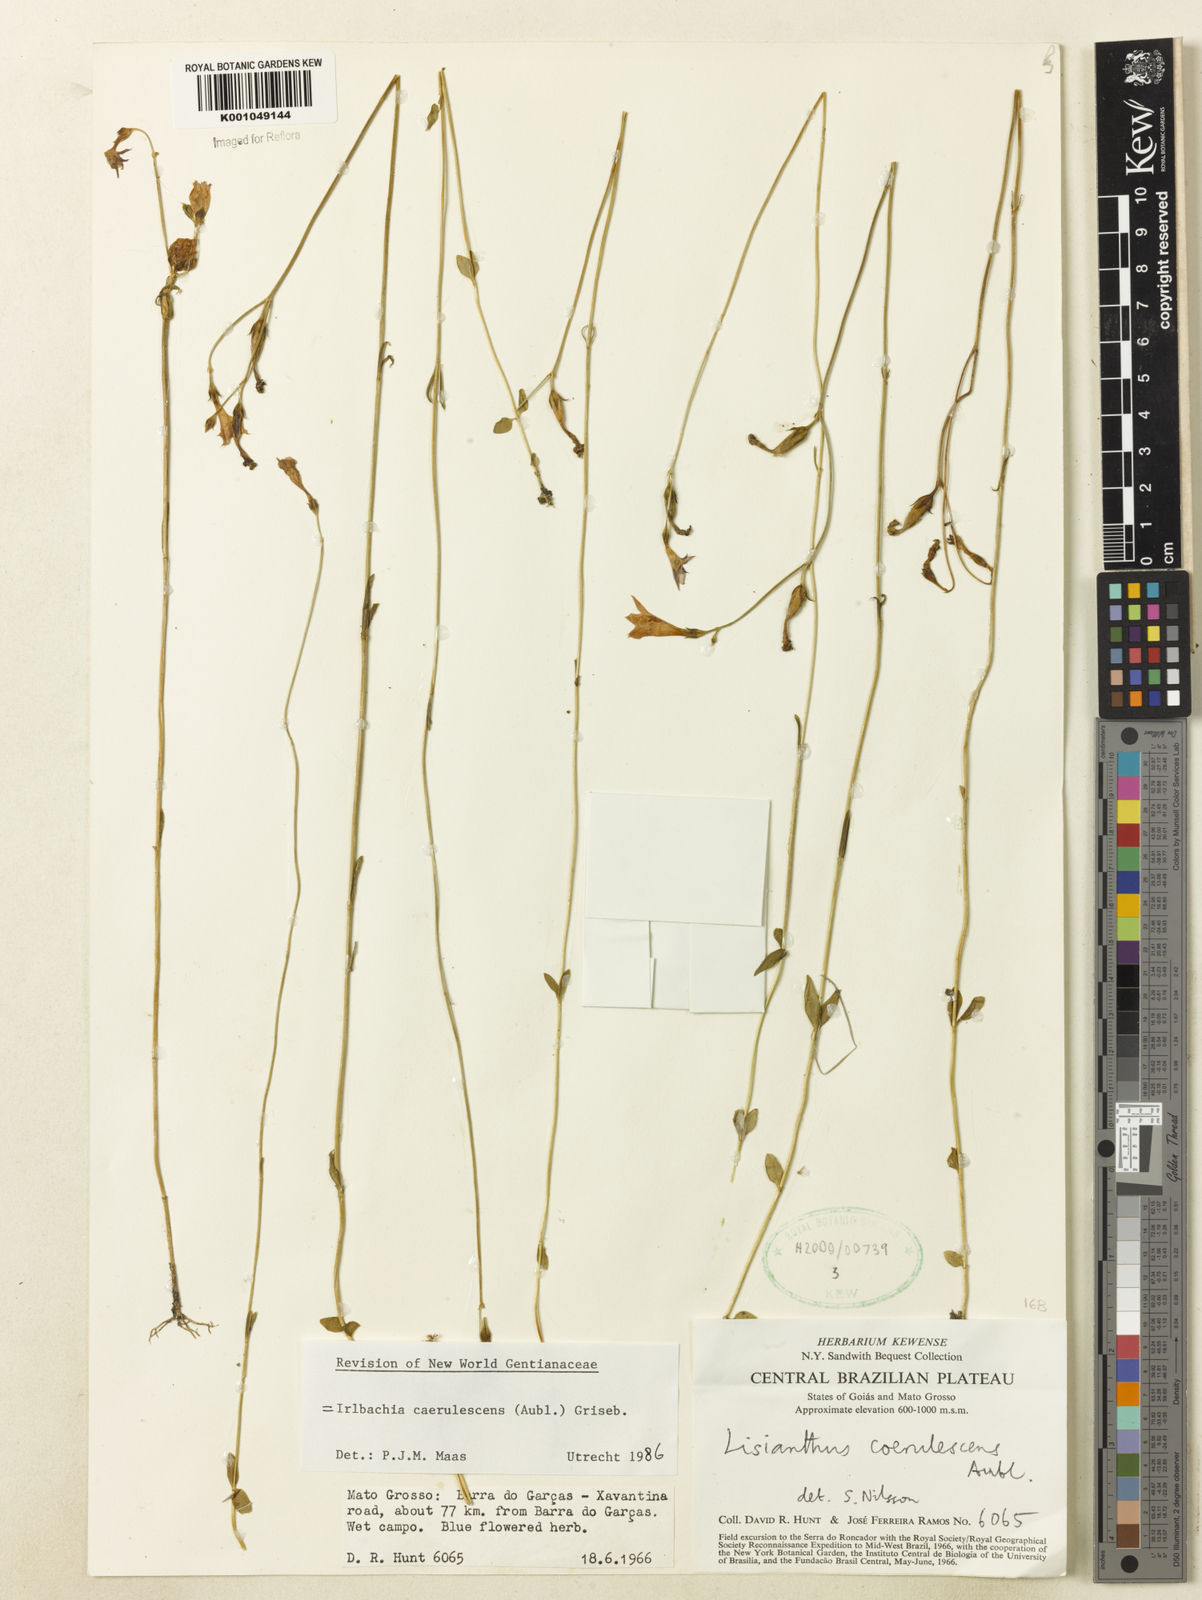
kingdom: Plantae
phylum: Tracheophyta
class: Magnoliopsida
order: Gentianales
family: Gentianaceae
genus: Tetrapollinia
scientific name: Tetrapollinia caerulescens
